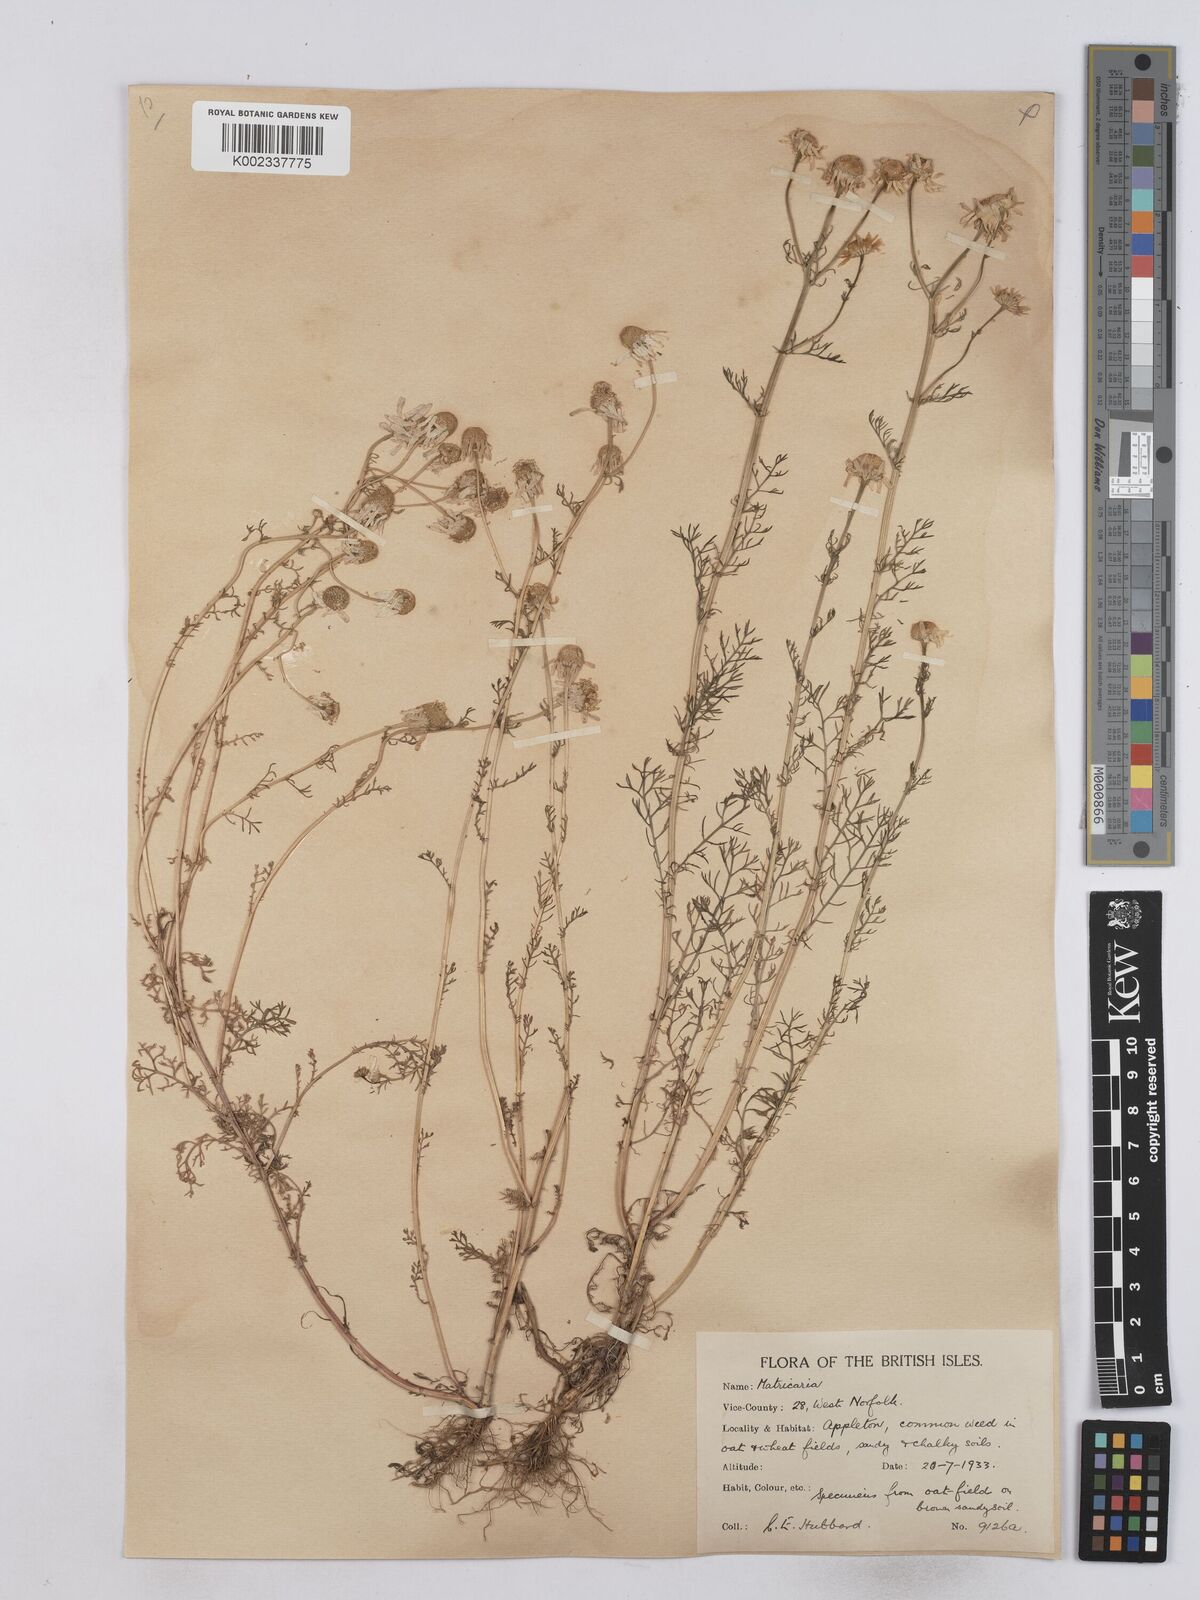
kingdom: Plantae
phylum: Tracheophyta
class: Magnoliopsida
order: Asterales
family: Asteraceae
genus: Matricaria
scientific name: Matricaria chamomilla
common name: Scented mayweed
